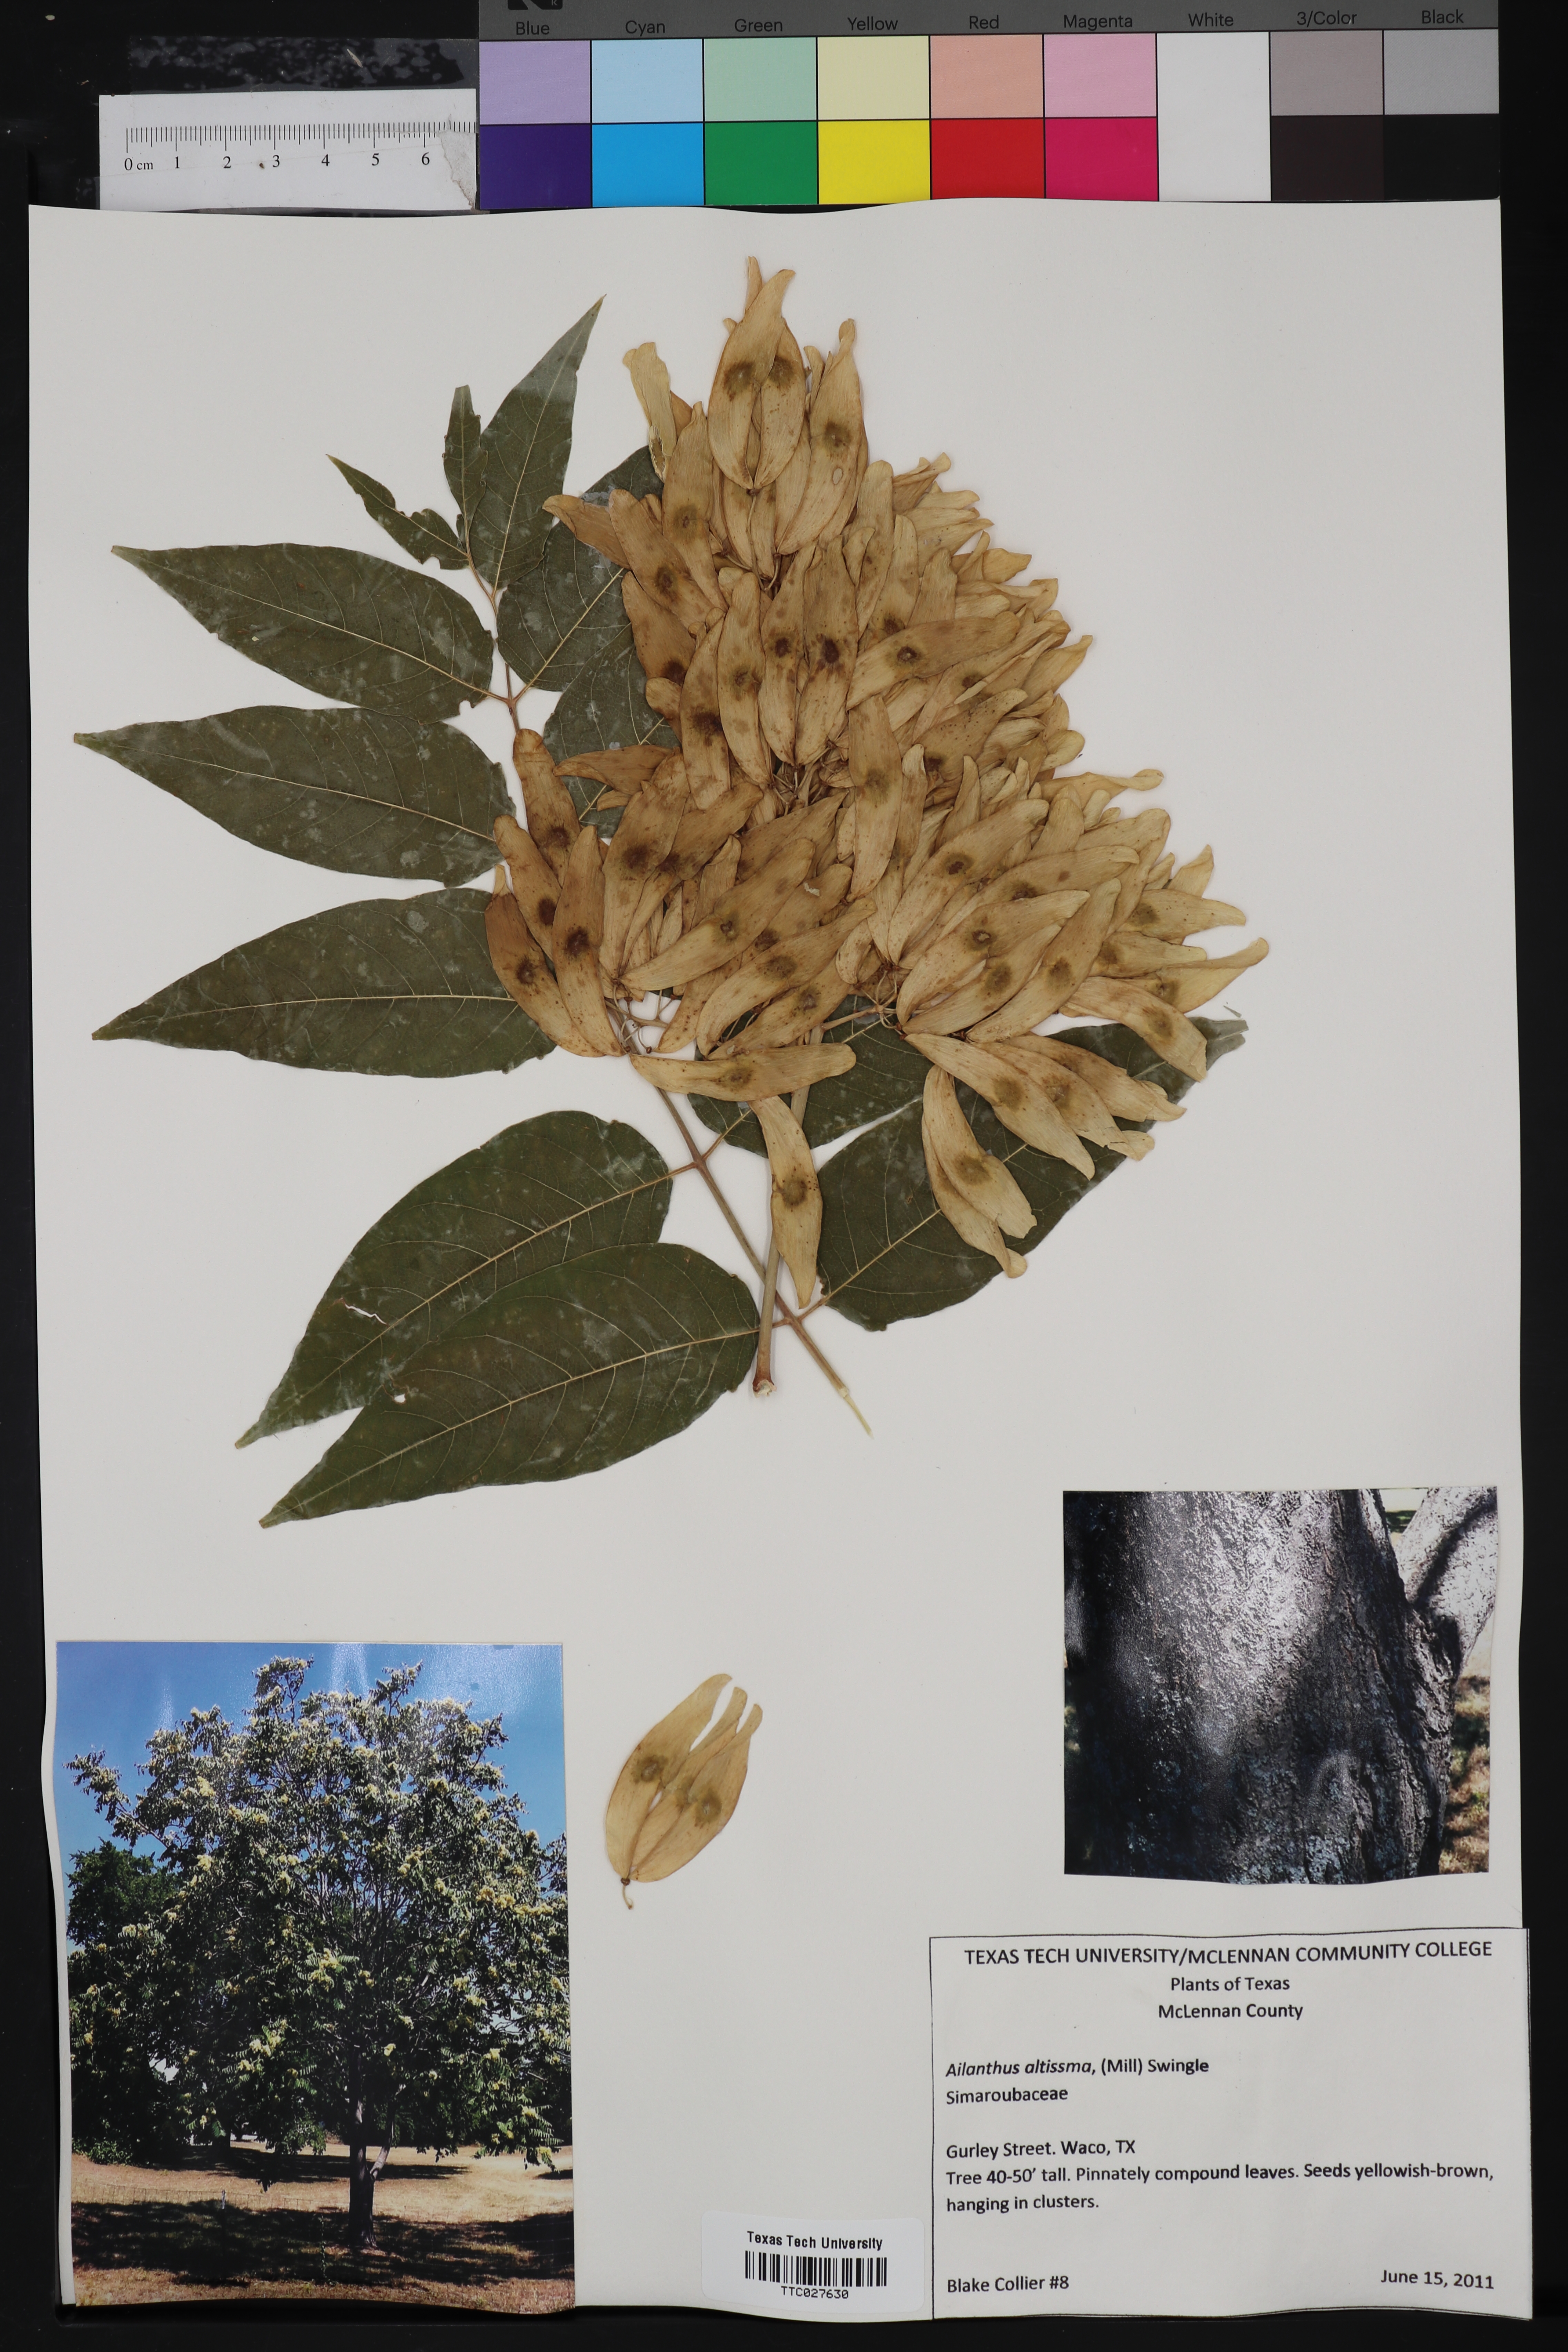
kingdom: Plantae
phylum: Tracheophyta
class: Magnoliopsida
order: Sapindales
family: Simaroubaceae
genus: Ailanthus
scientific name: Ailanthus altissima
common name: Tree-of-heaven
